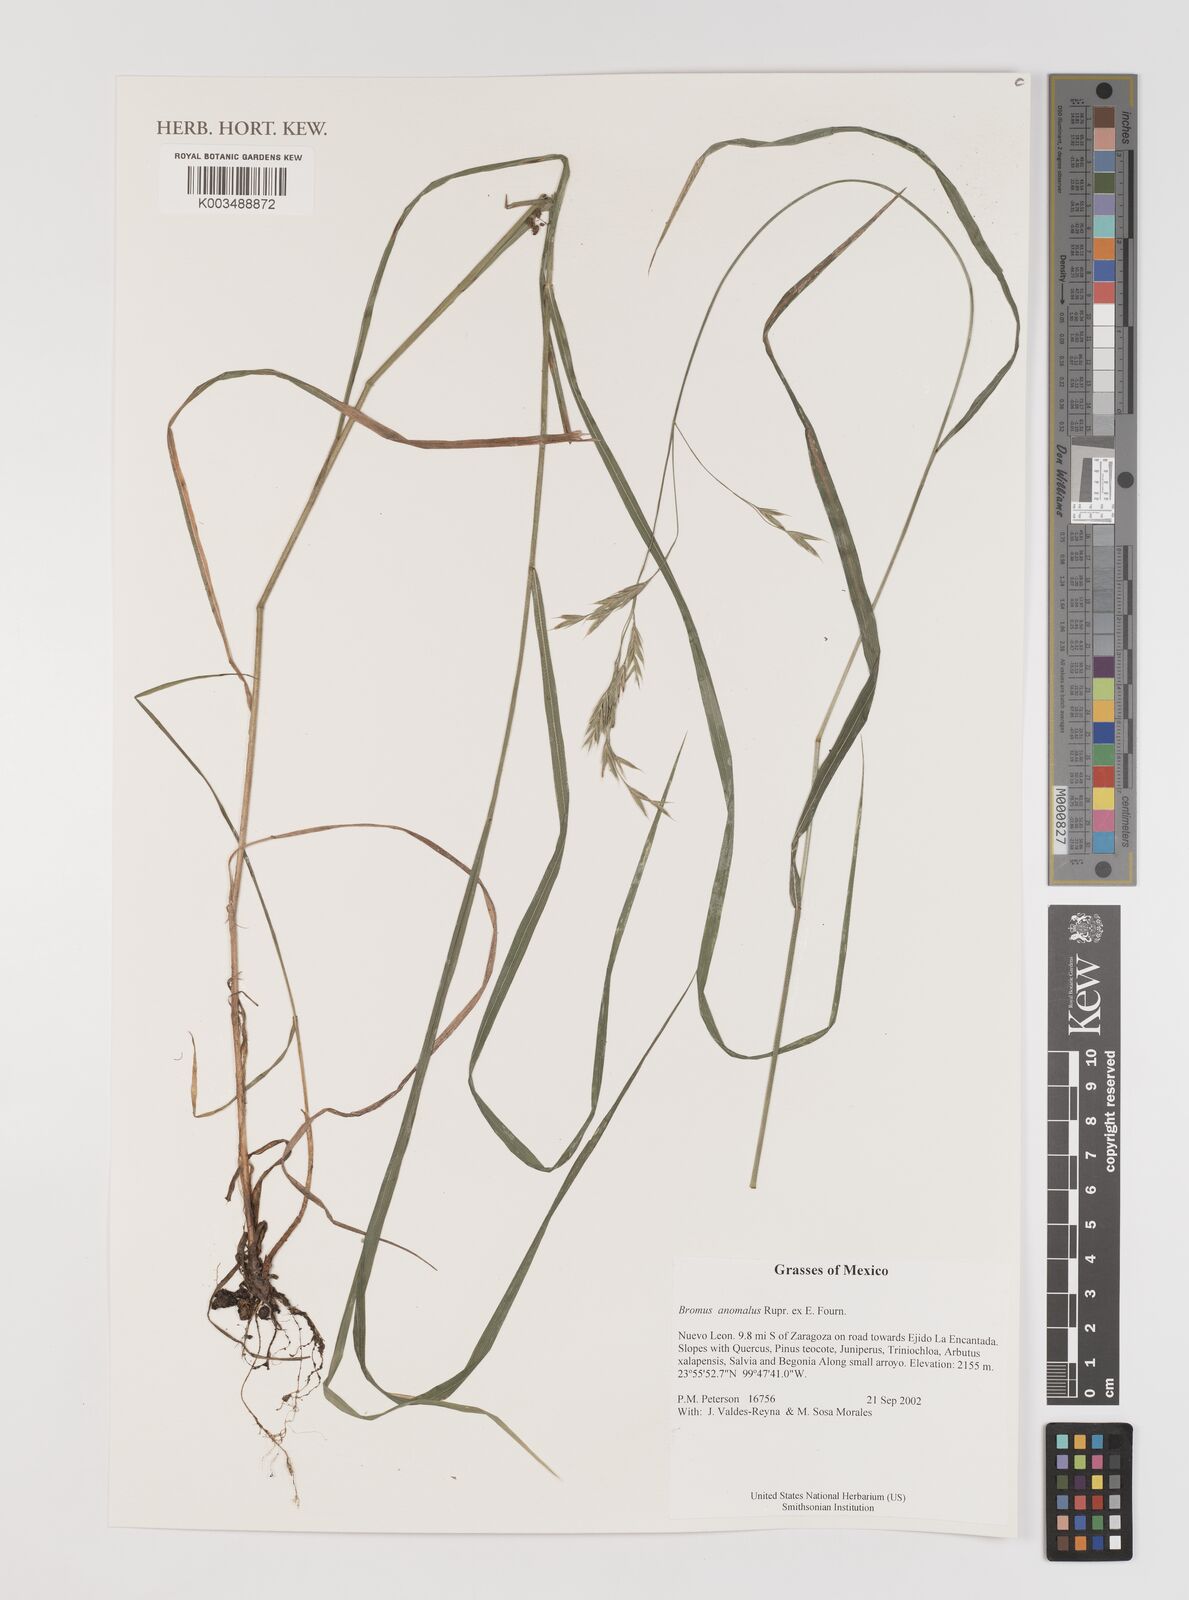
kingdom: Plantae
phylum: Tracheophyta
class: Liliopsida
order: Poales
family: Poaceae
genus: Bromus
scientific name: Bromus anomalus
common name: Nodding brome
